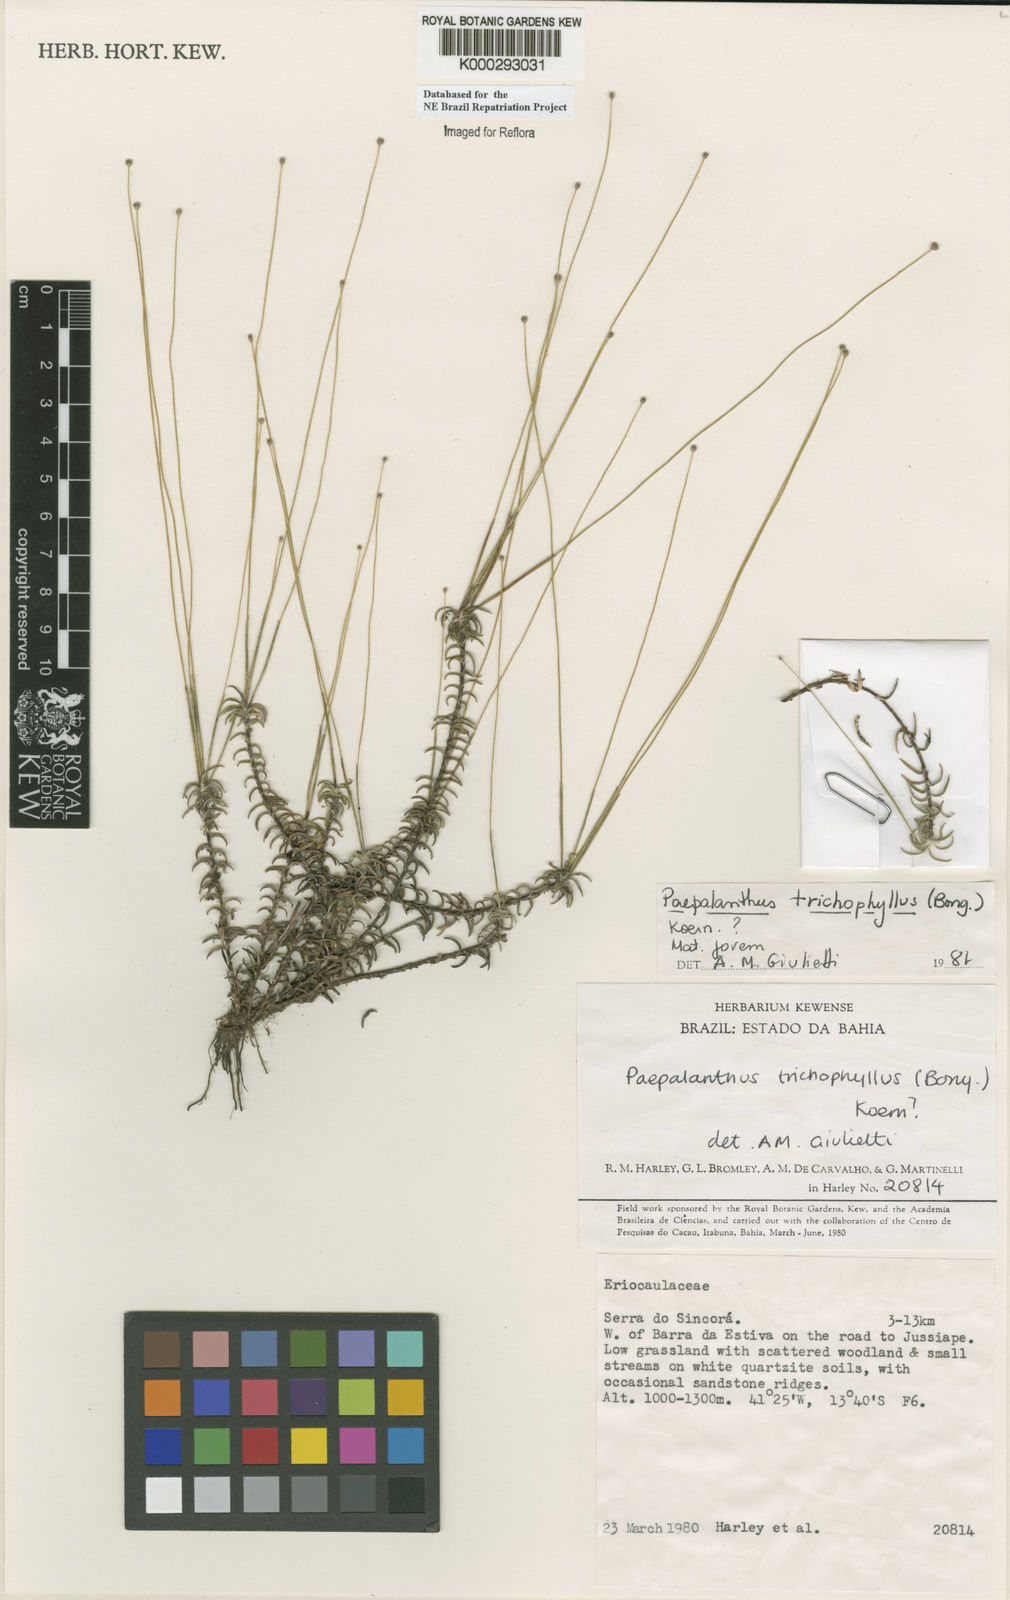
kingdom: Plantae
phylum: Tracheophyta
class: Liliopsida
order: Poales
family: Eriocaulaceae
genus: Paepalanthus
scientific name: Paepalanthus
